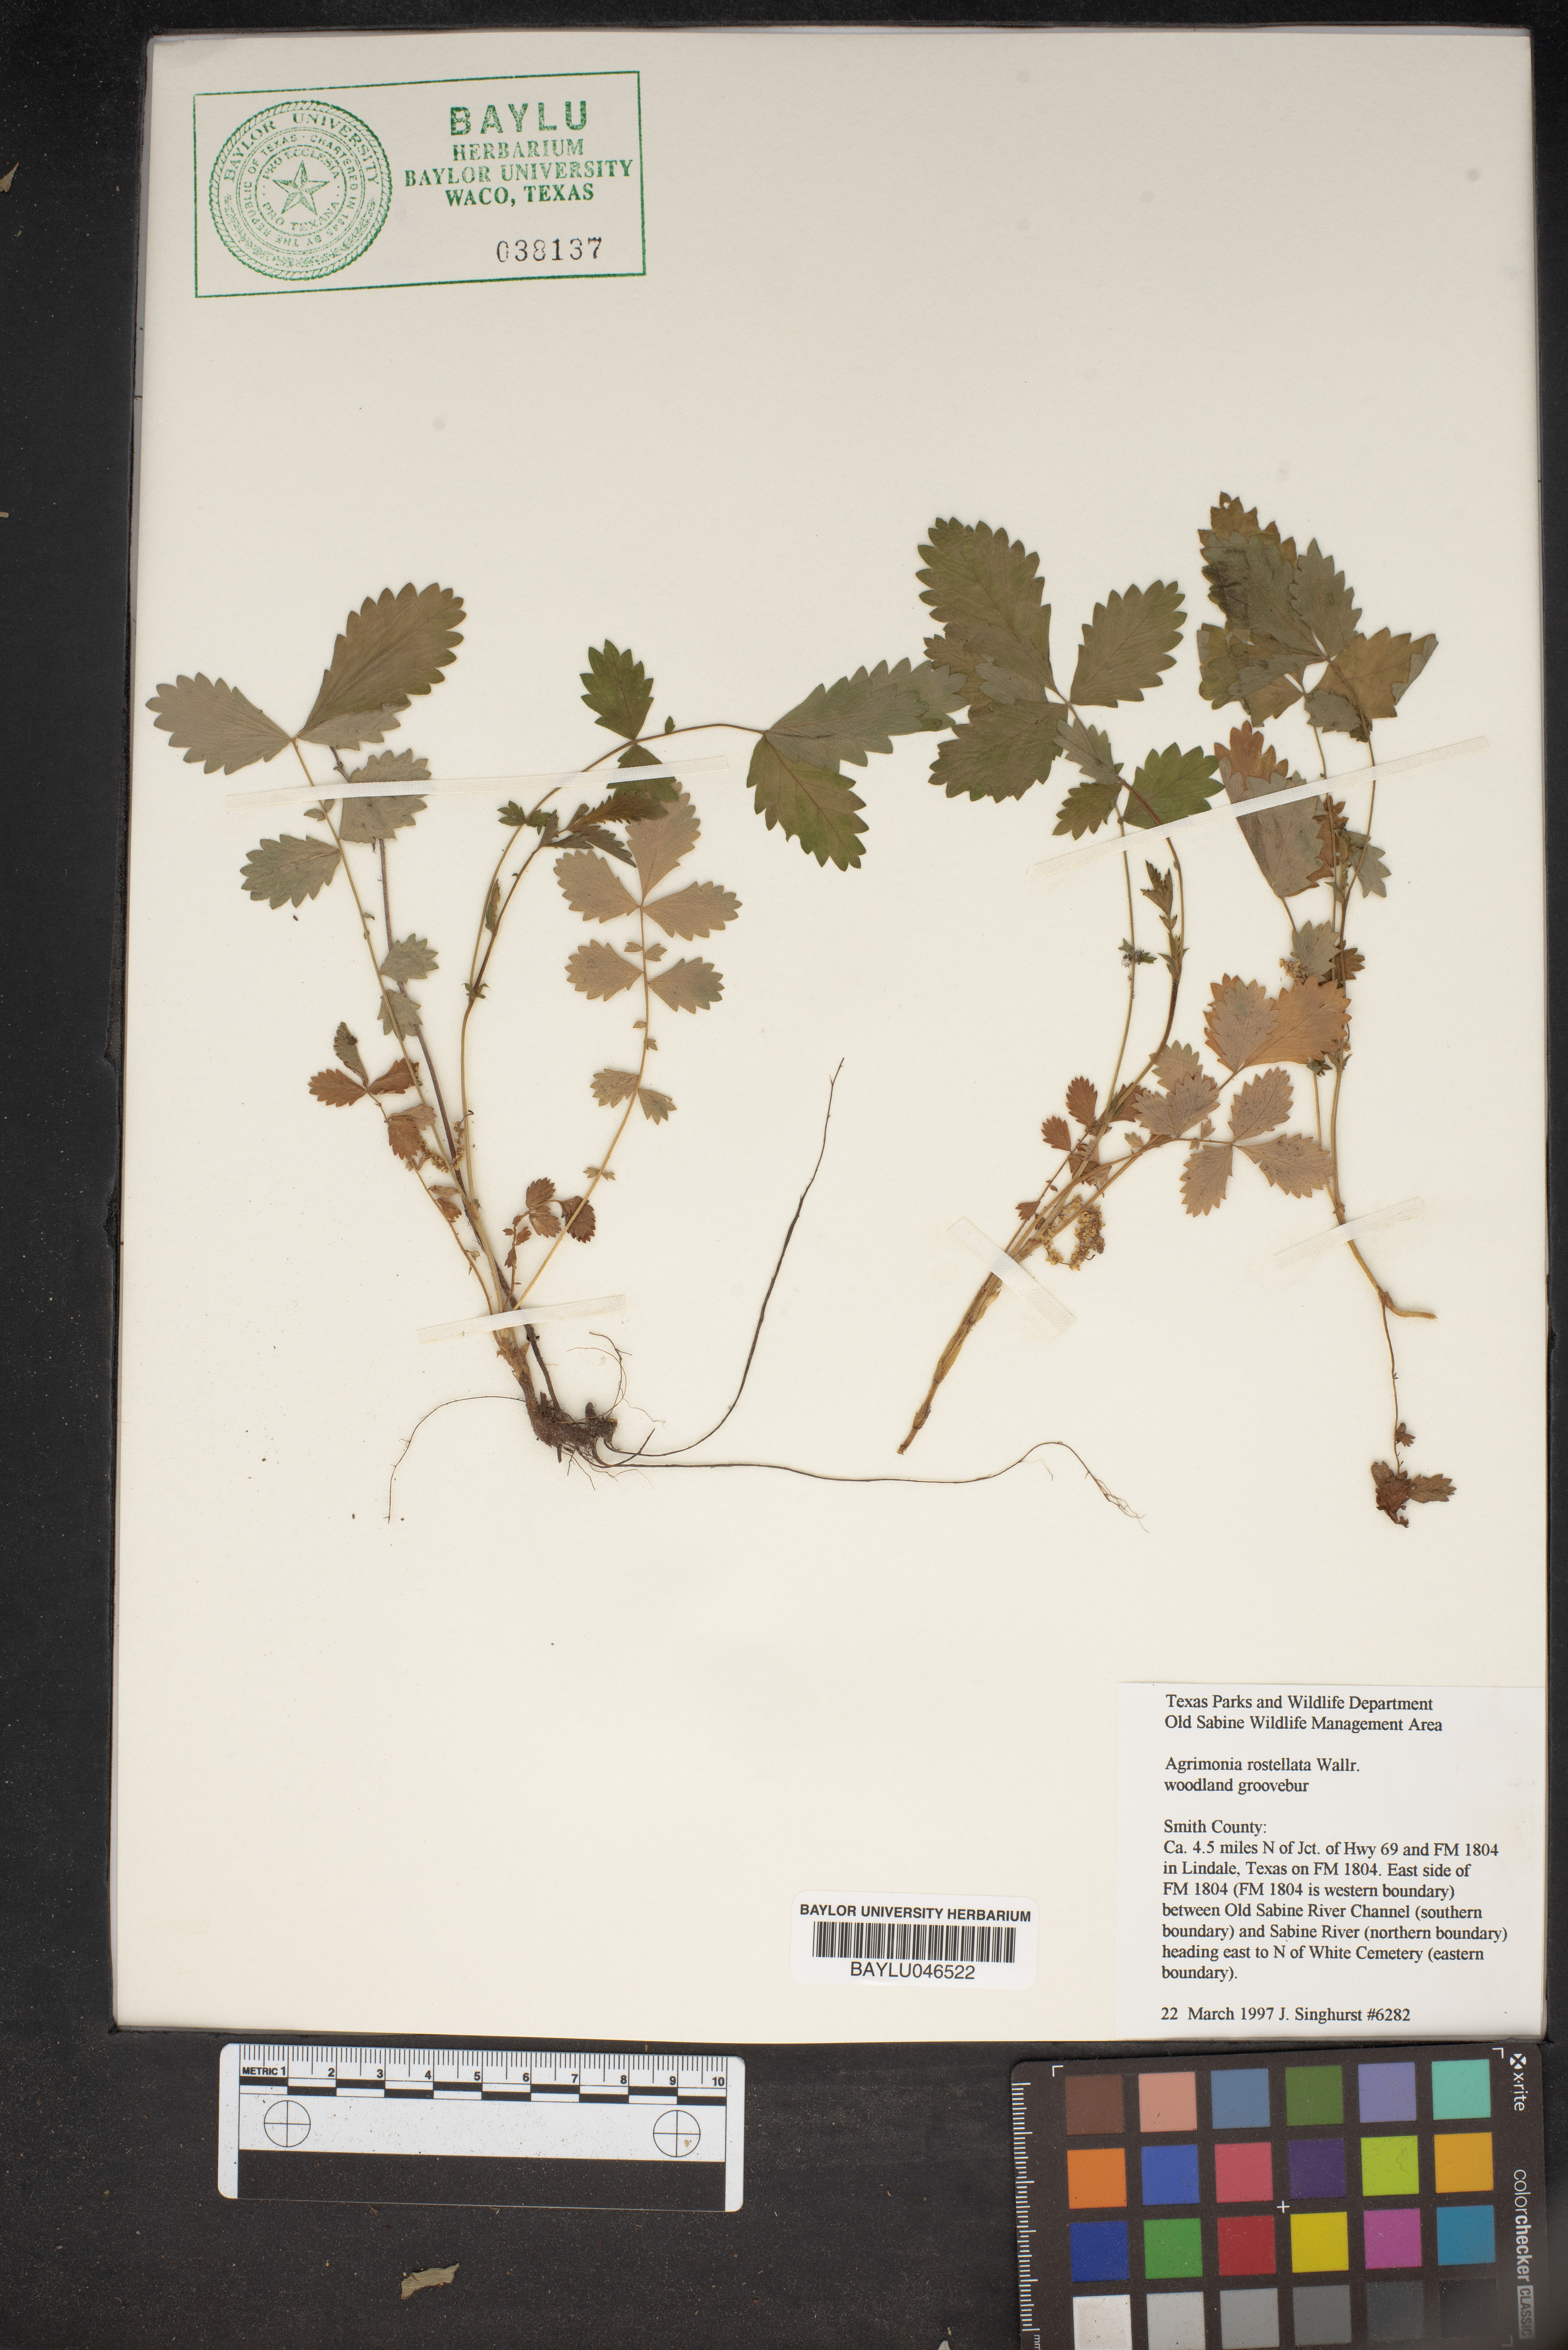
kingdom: Plantae
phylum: Tracheophyta
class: Magnoliopsida
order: Rosales
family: Rosaceae
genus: Agrimonia
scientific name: Agrimonia rostellata
